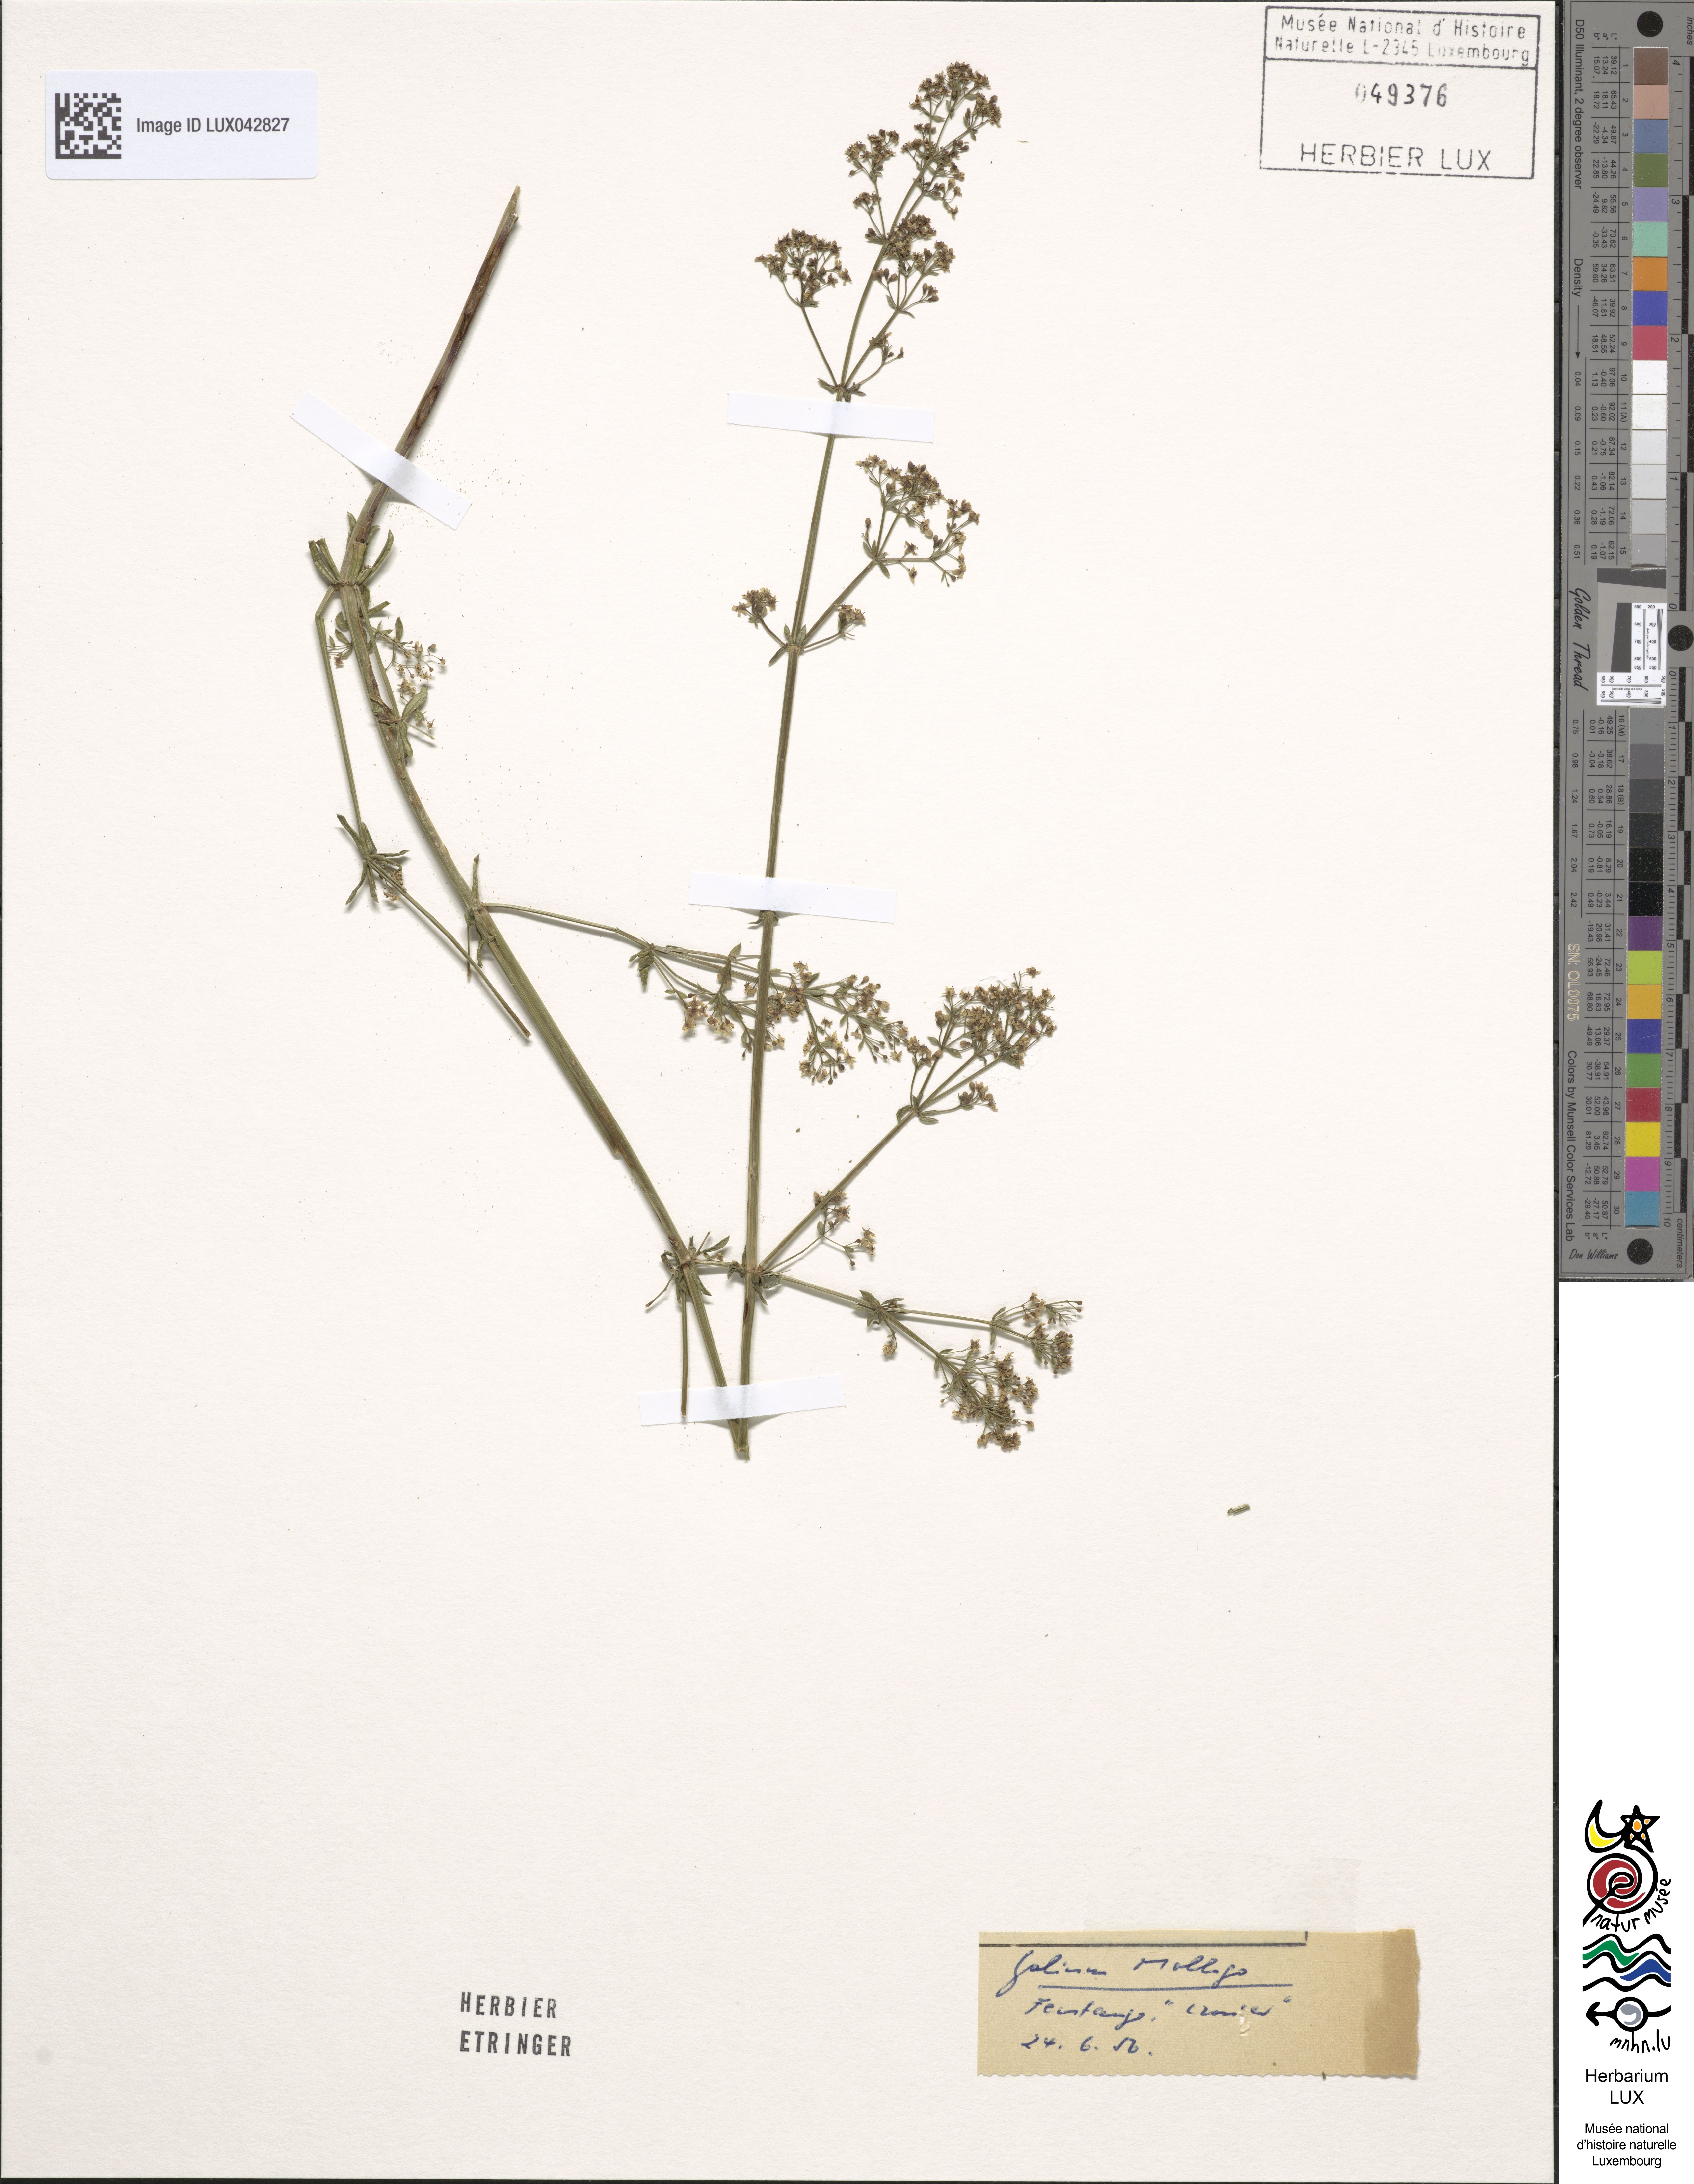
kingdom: Plantae
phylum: Tracheophyta
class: Magnoliopsida
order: Gentianales
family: Rubiaceae
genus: Galium
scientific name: Galium mollugo
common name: Hedge bedstraw
